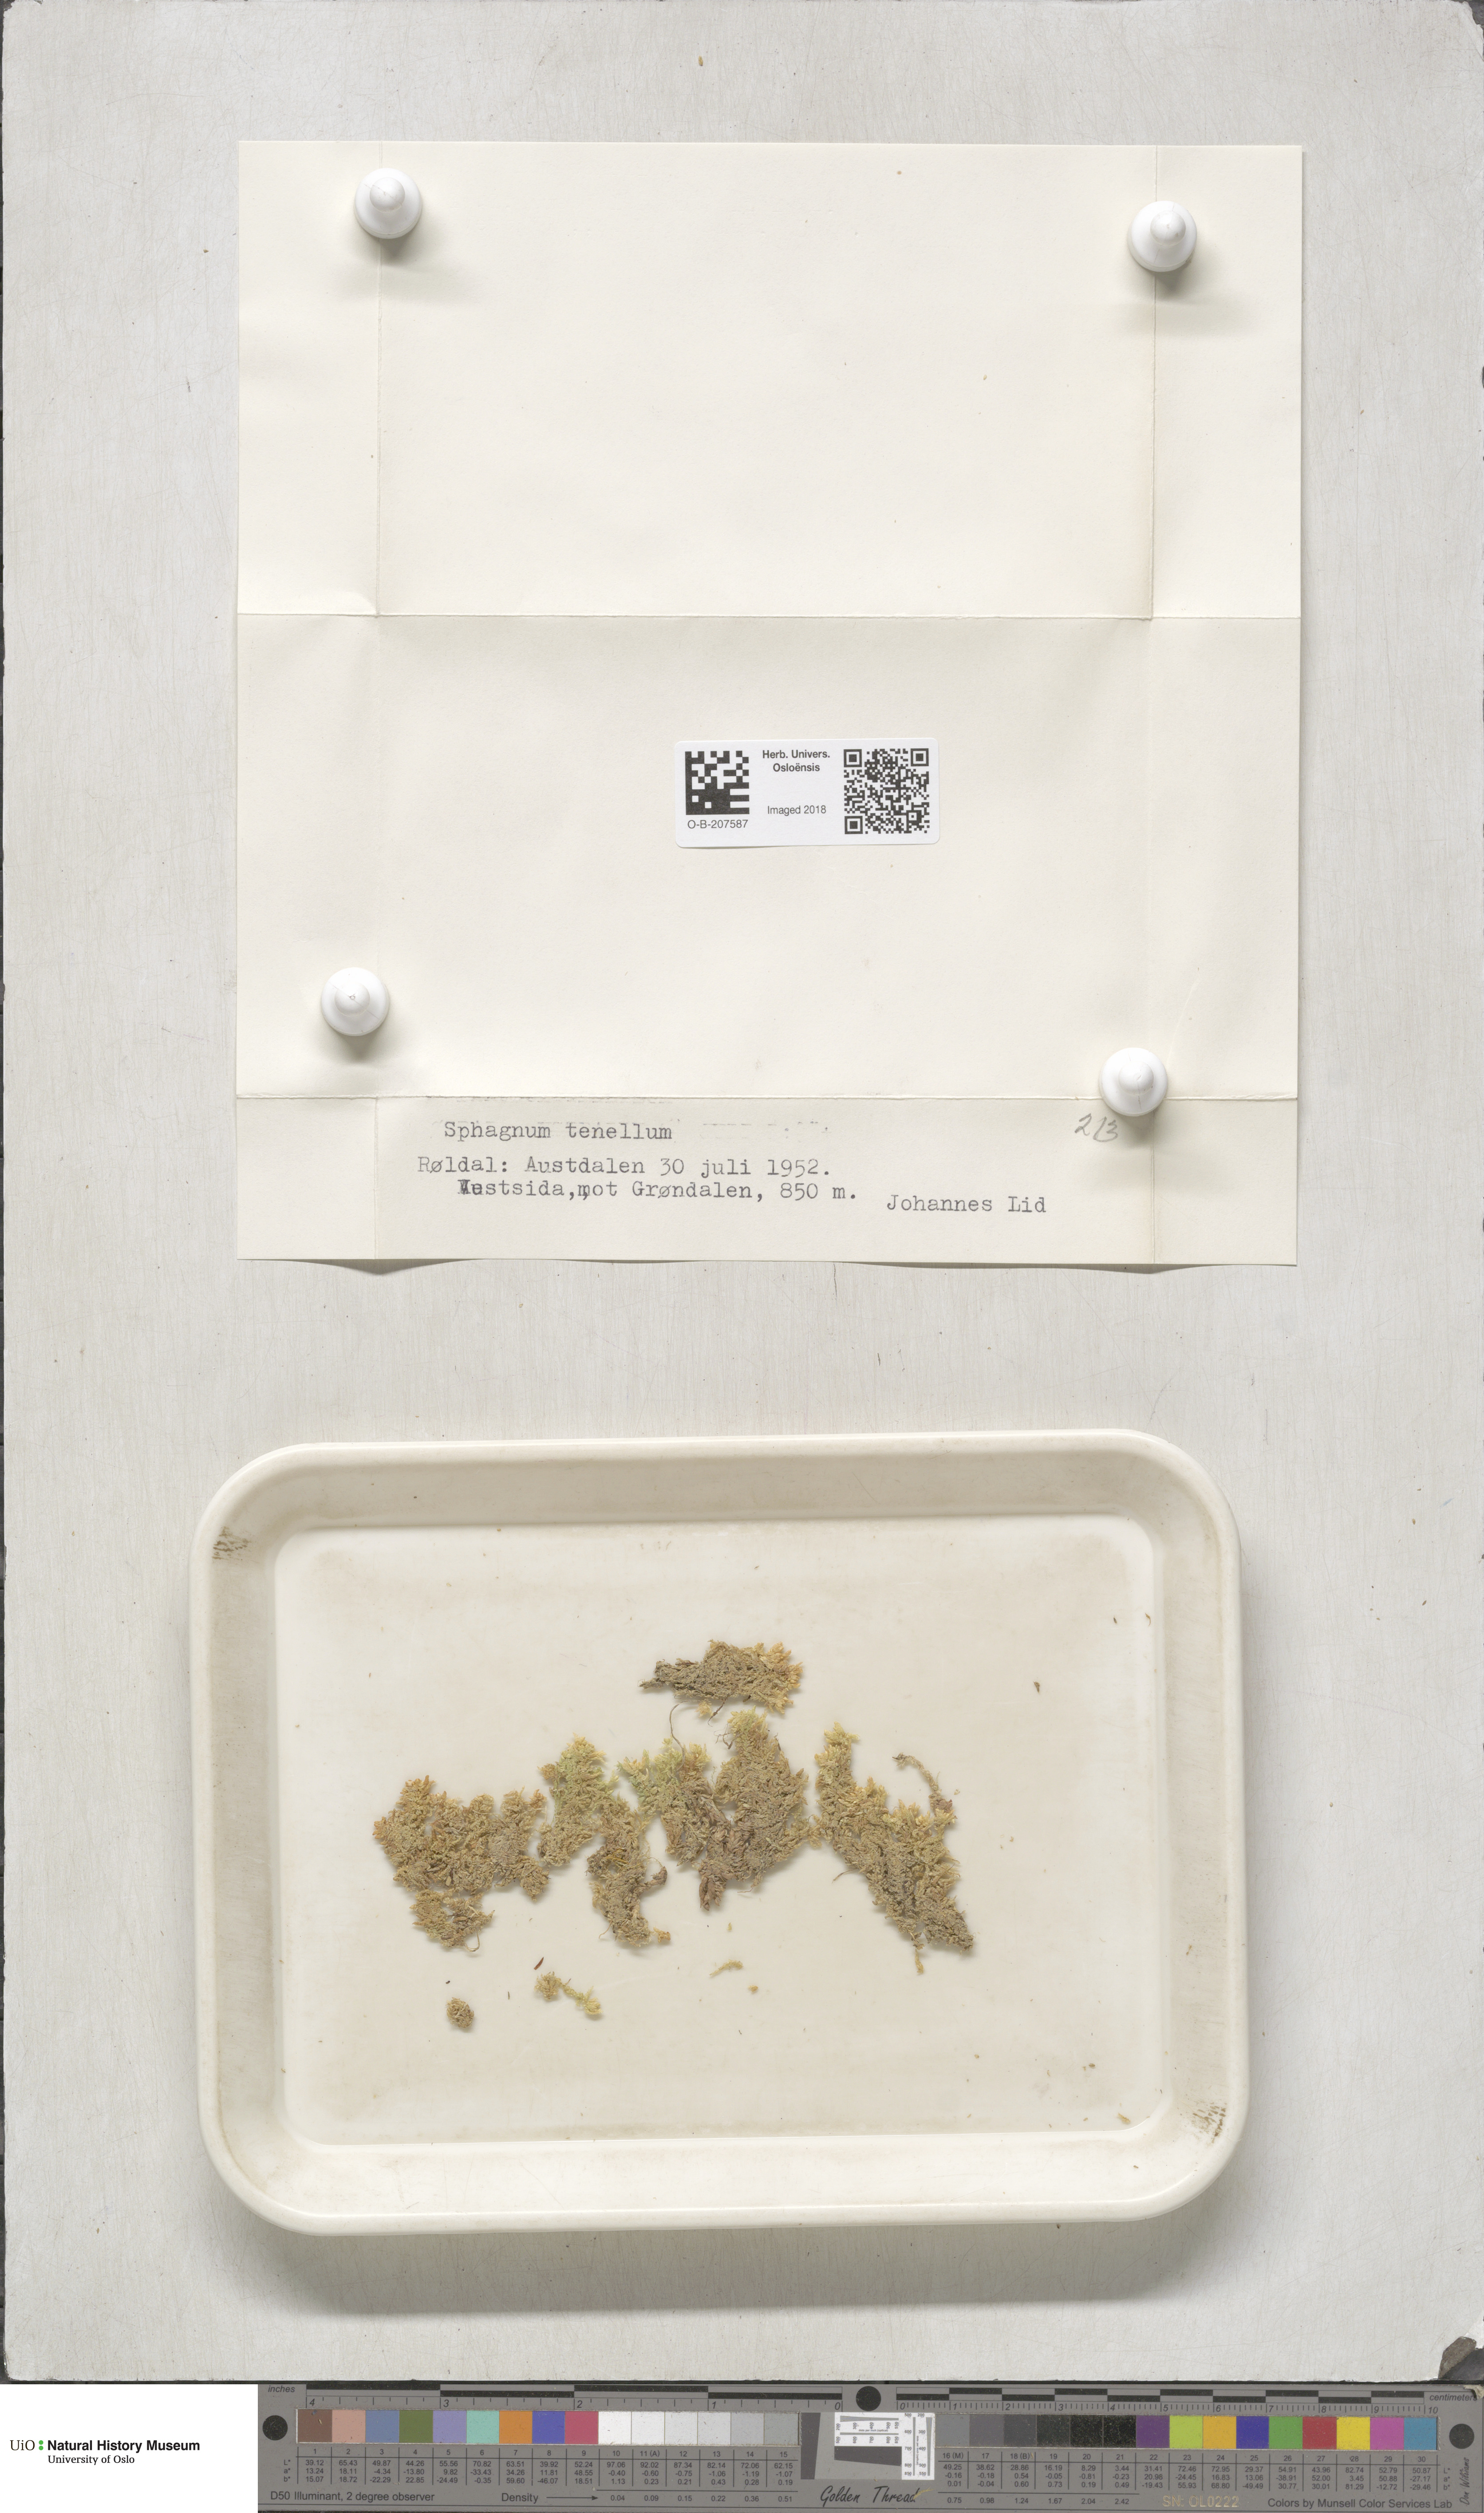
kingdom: Plantae
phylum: Bryophyta
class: Sphagnopsida
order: Sphagnales
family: Sphagnaceae
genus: Sphagnum
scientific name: Sphagnum tenellum
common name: Soft bog-moss
